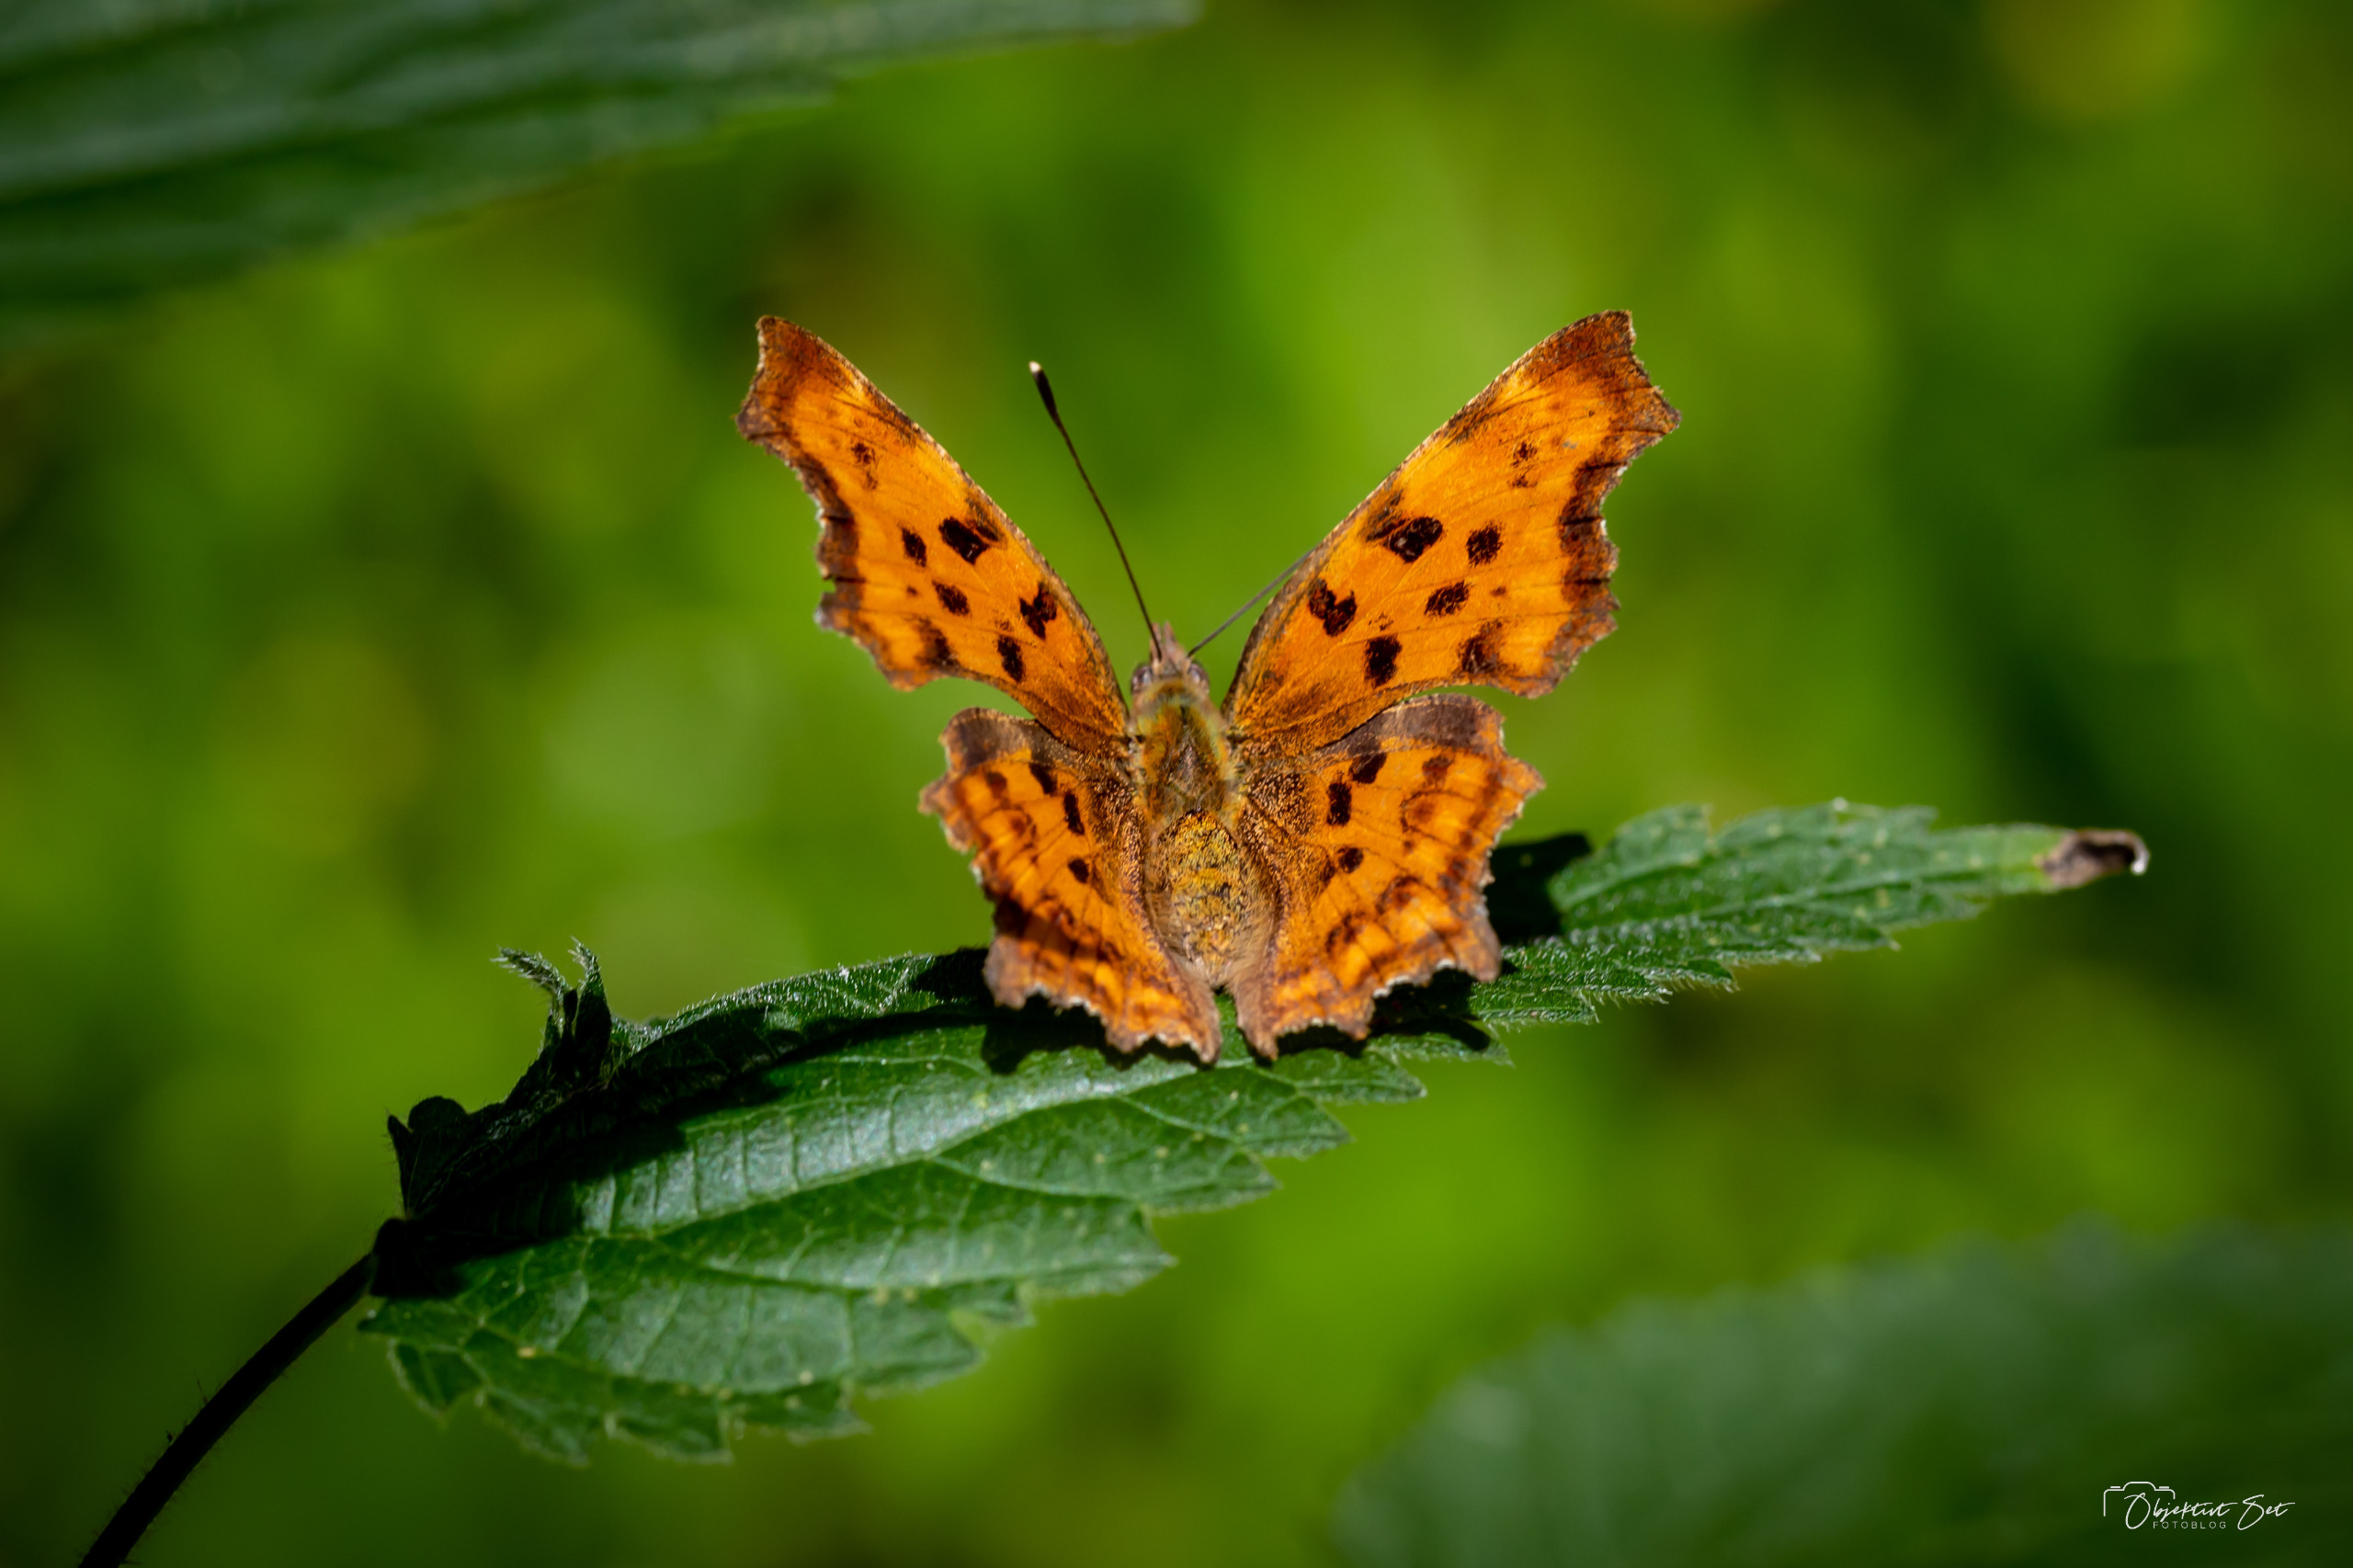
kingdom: Animalia
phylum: Arthropoda
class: Insecta
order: Lepidoptera
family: Nymphalidae
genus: Polygonia
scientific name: Polygonia c-album
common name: Det hvide C
